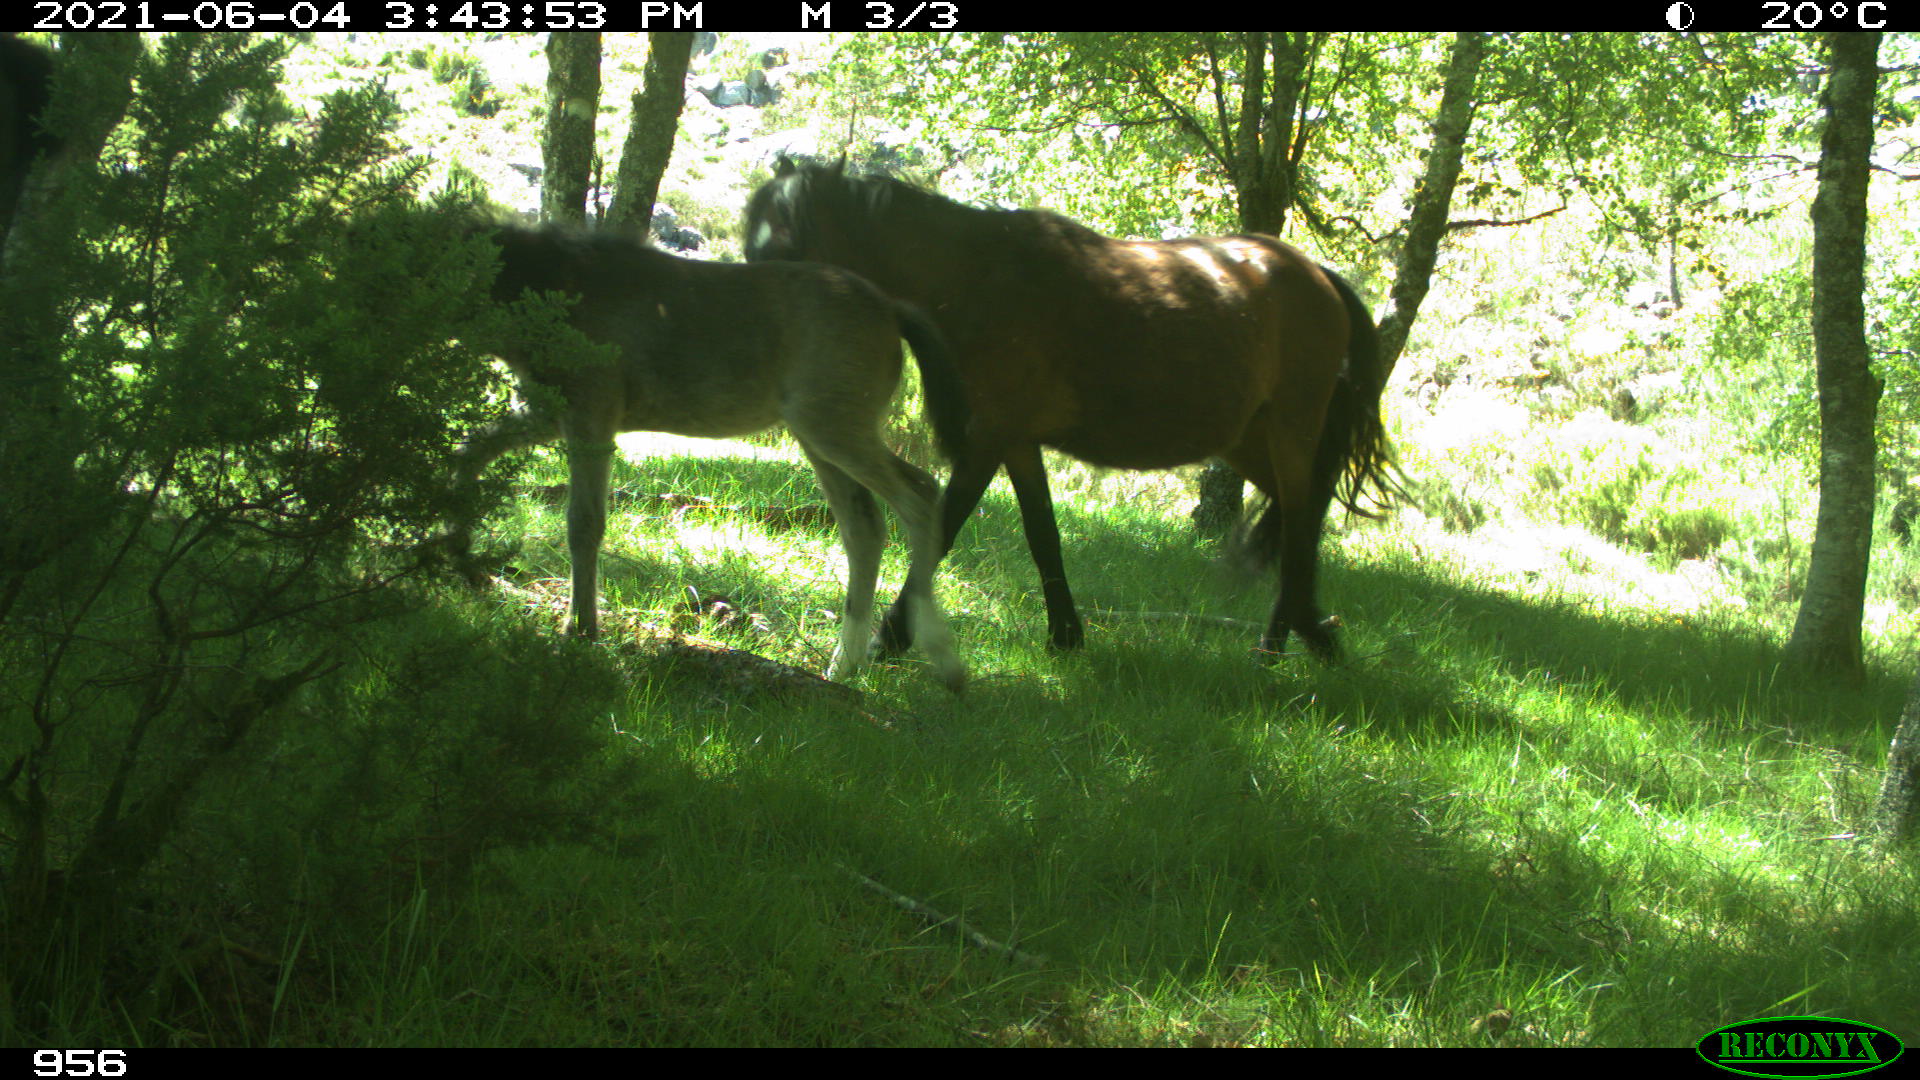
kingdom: Animalia
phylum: Chordata
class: Mammalia
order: Perissodactyla
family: Equidae
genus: Equus
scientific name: Equus caballus
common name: Horse
